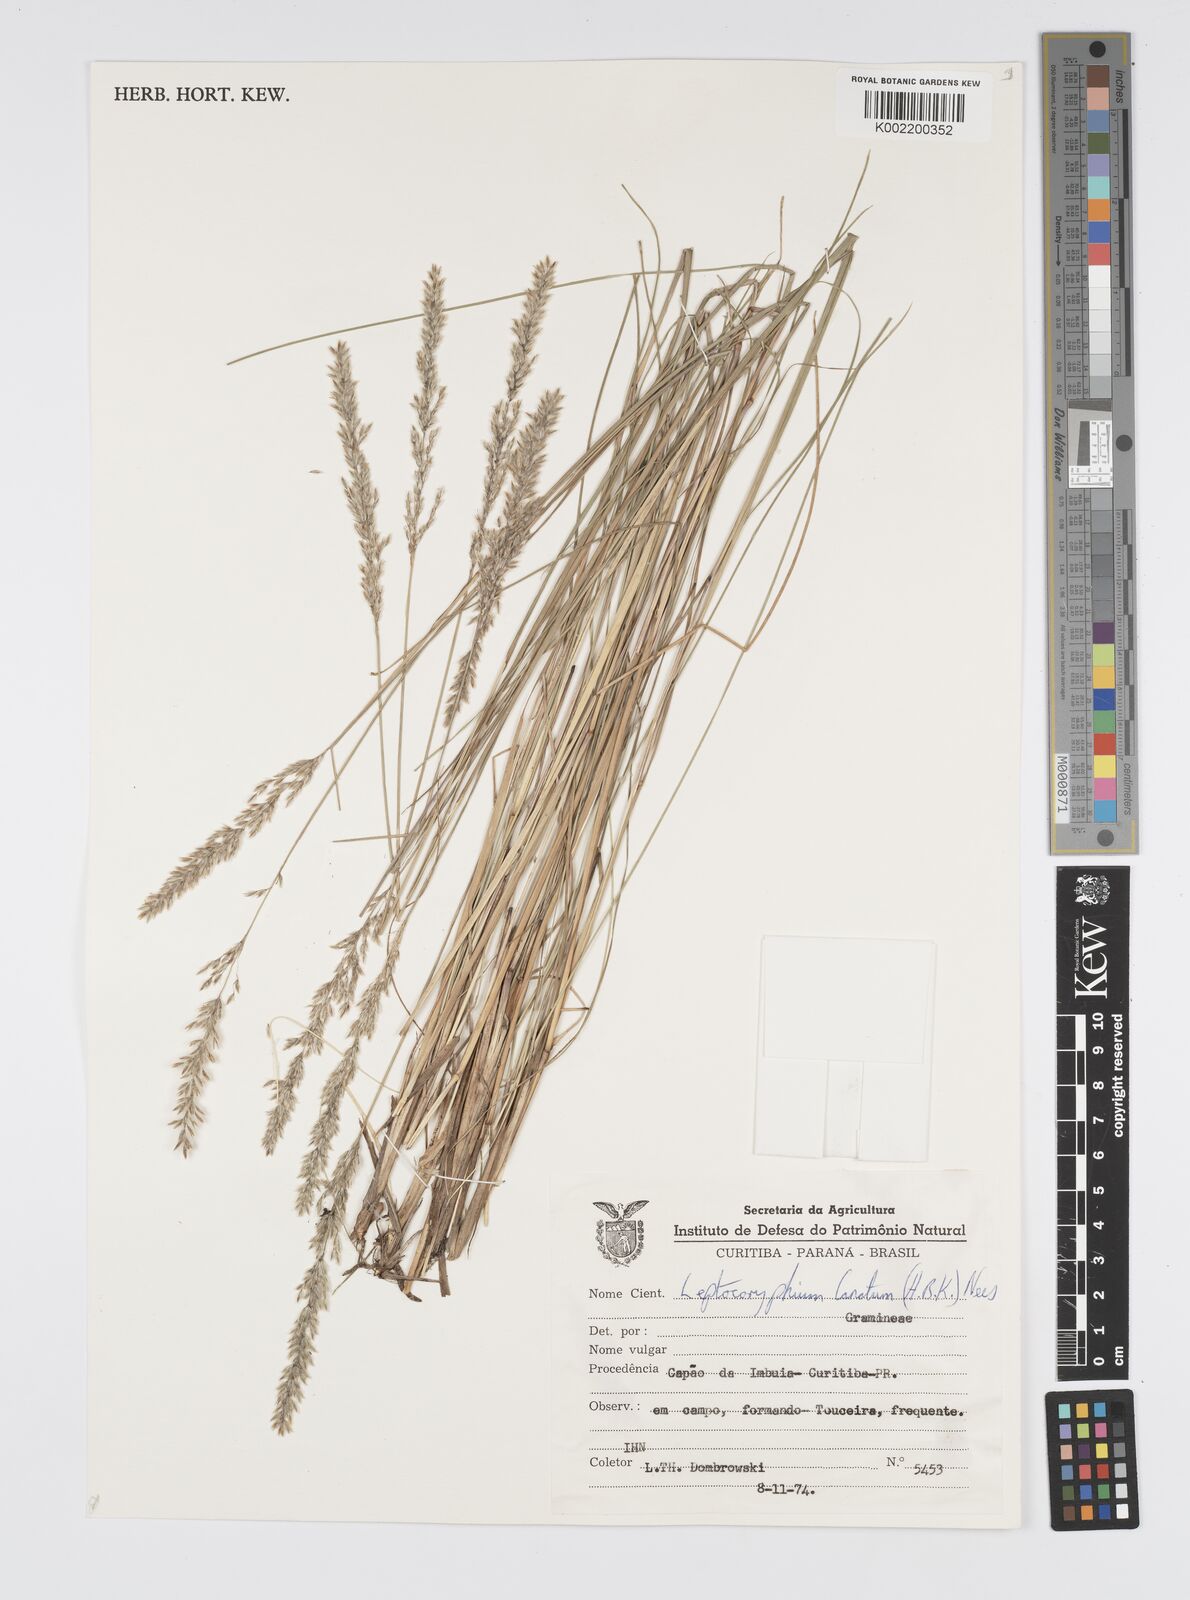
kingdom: Plantae
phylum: Tracheophyta
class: Liliopsida
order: Poales
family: Poaceae
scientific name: Poaceae
